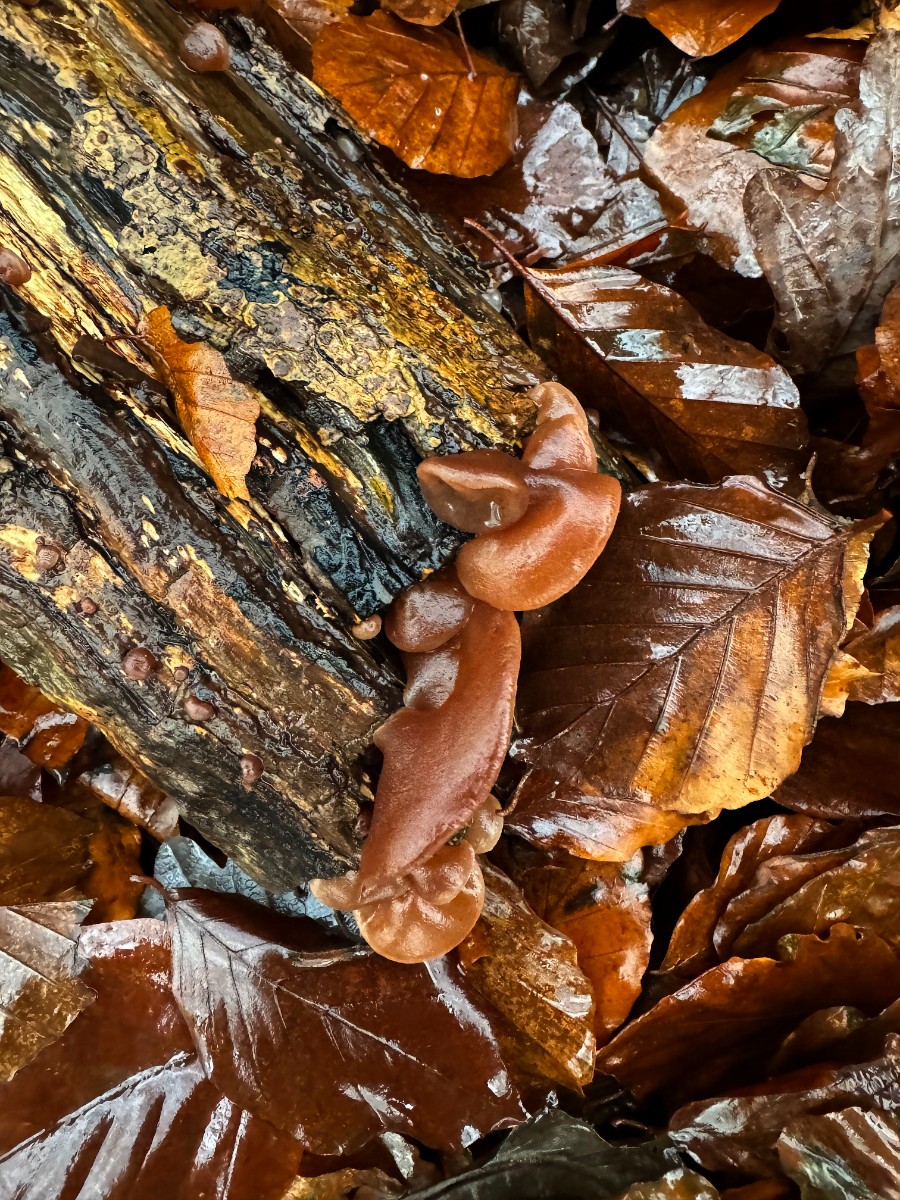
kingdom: Fungi
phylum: Basidiomycota
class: Agaricomycetes
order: Auriculariales
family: Auriculariaceae
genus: Auricularia
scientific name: Auricularia auricula-judae
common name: almindelig judasøre
